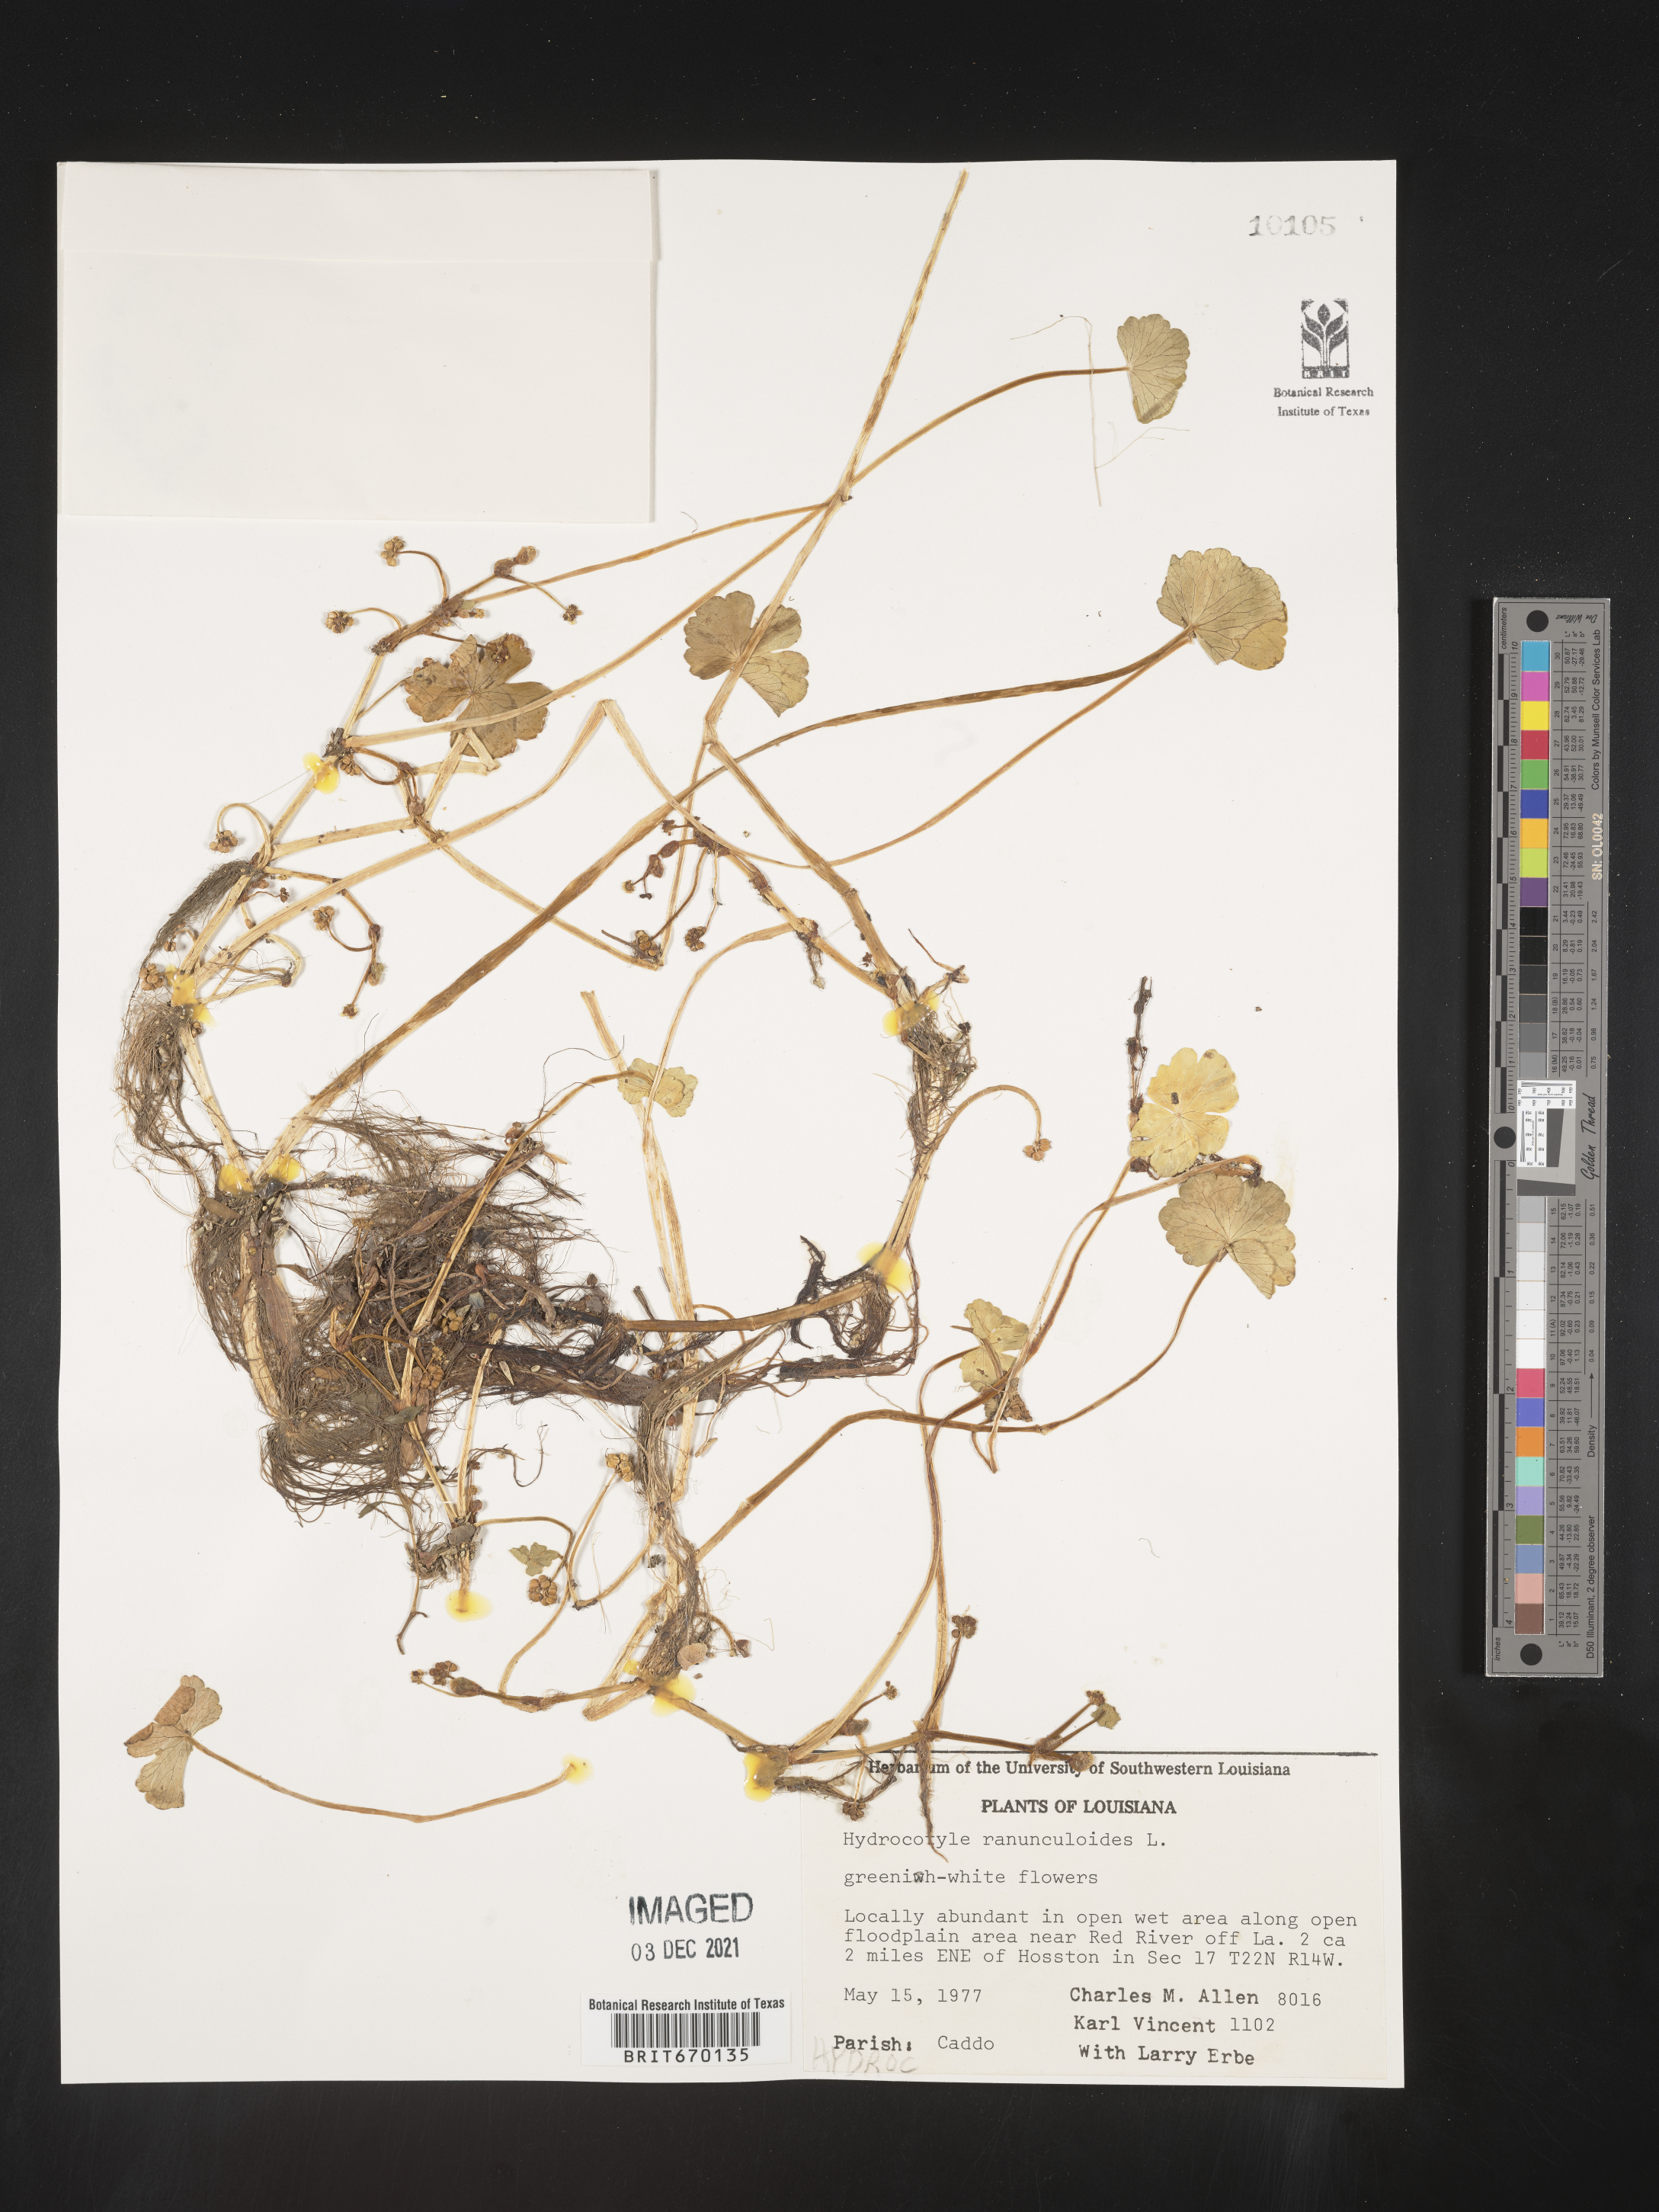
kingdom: Plantae
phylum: Tracheophyta
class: Magnoliopsida
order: Apiales
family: Araliaceae
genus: Hydrocotyle
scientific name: Hydrocotyle ranunculoides
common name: Floating pennywort
